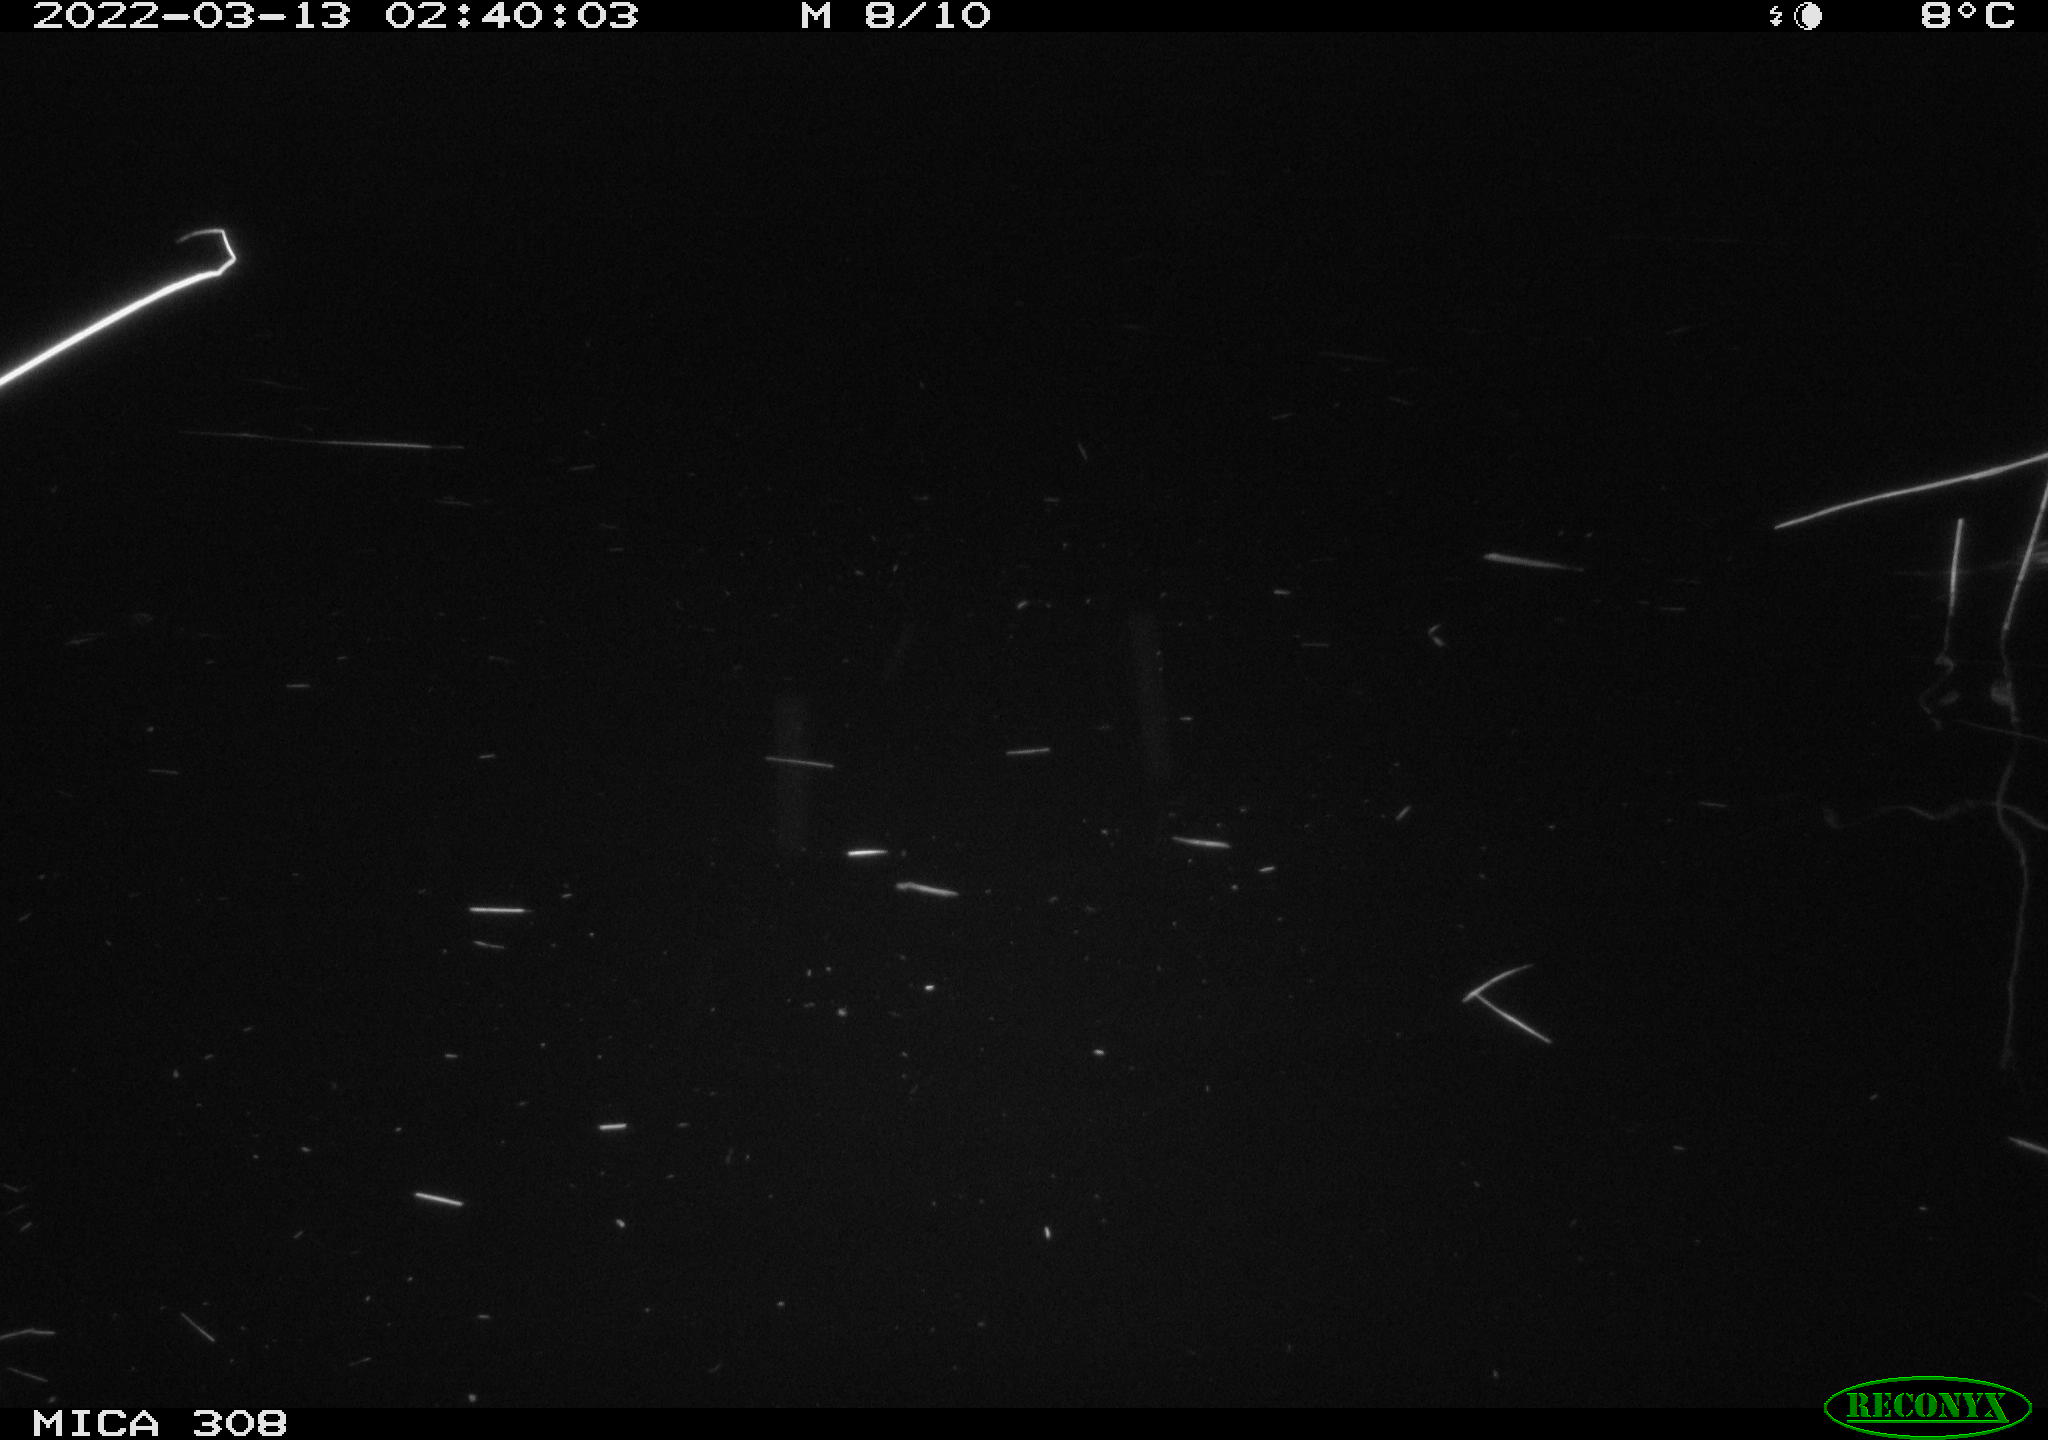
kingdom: Animalia
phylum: Chordata
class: Mammalia
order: Rodentia
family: Cricetidae
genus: Ondatra
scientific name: Ondatra zibethicus
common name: Muskrat
